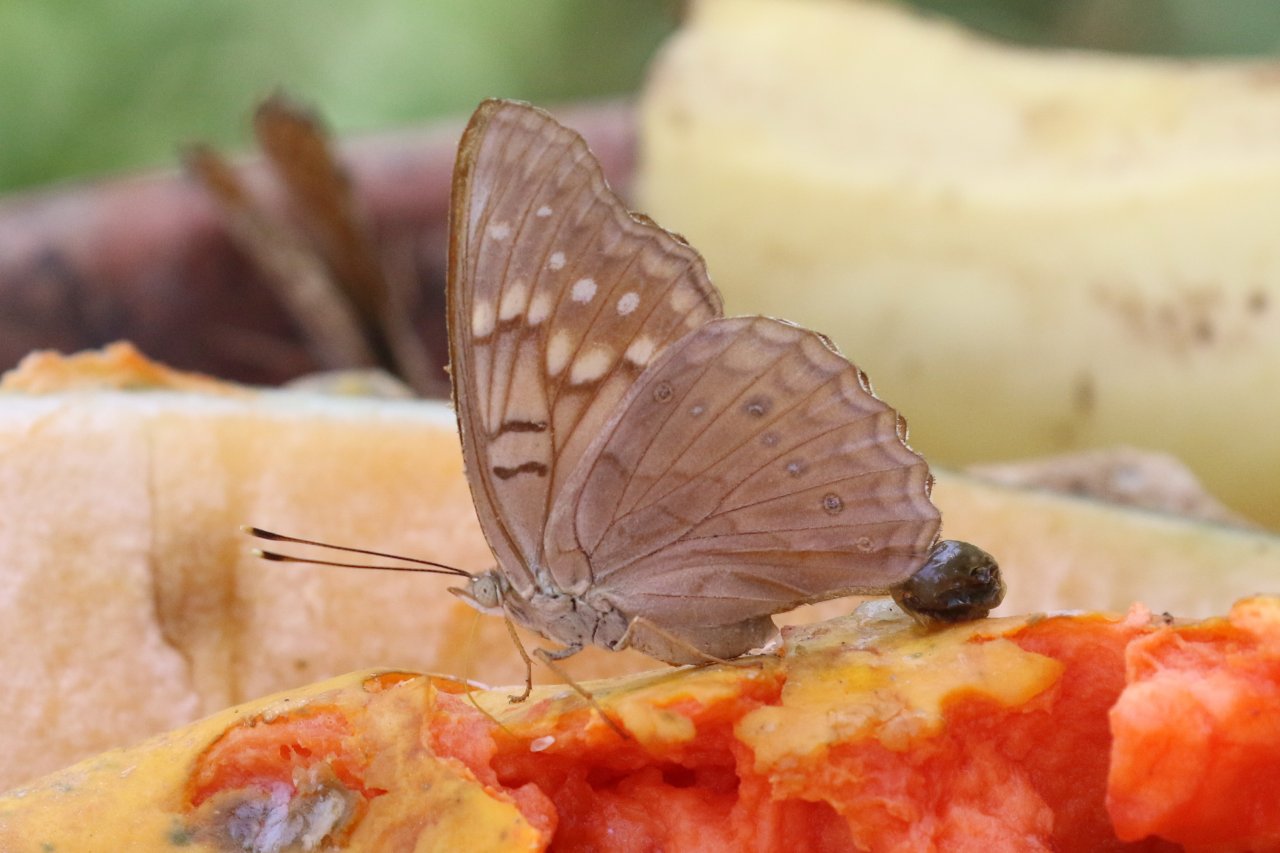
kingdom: Animalia
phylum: Arthropoda
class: Insecta
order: Lepidoptera
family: Nymphalidae
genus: Asterocampa
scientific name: Asterocampa clyton
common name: Tawny Emperor
